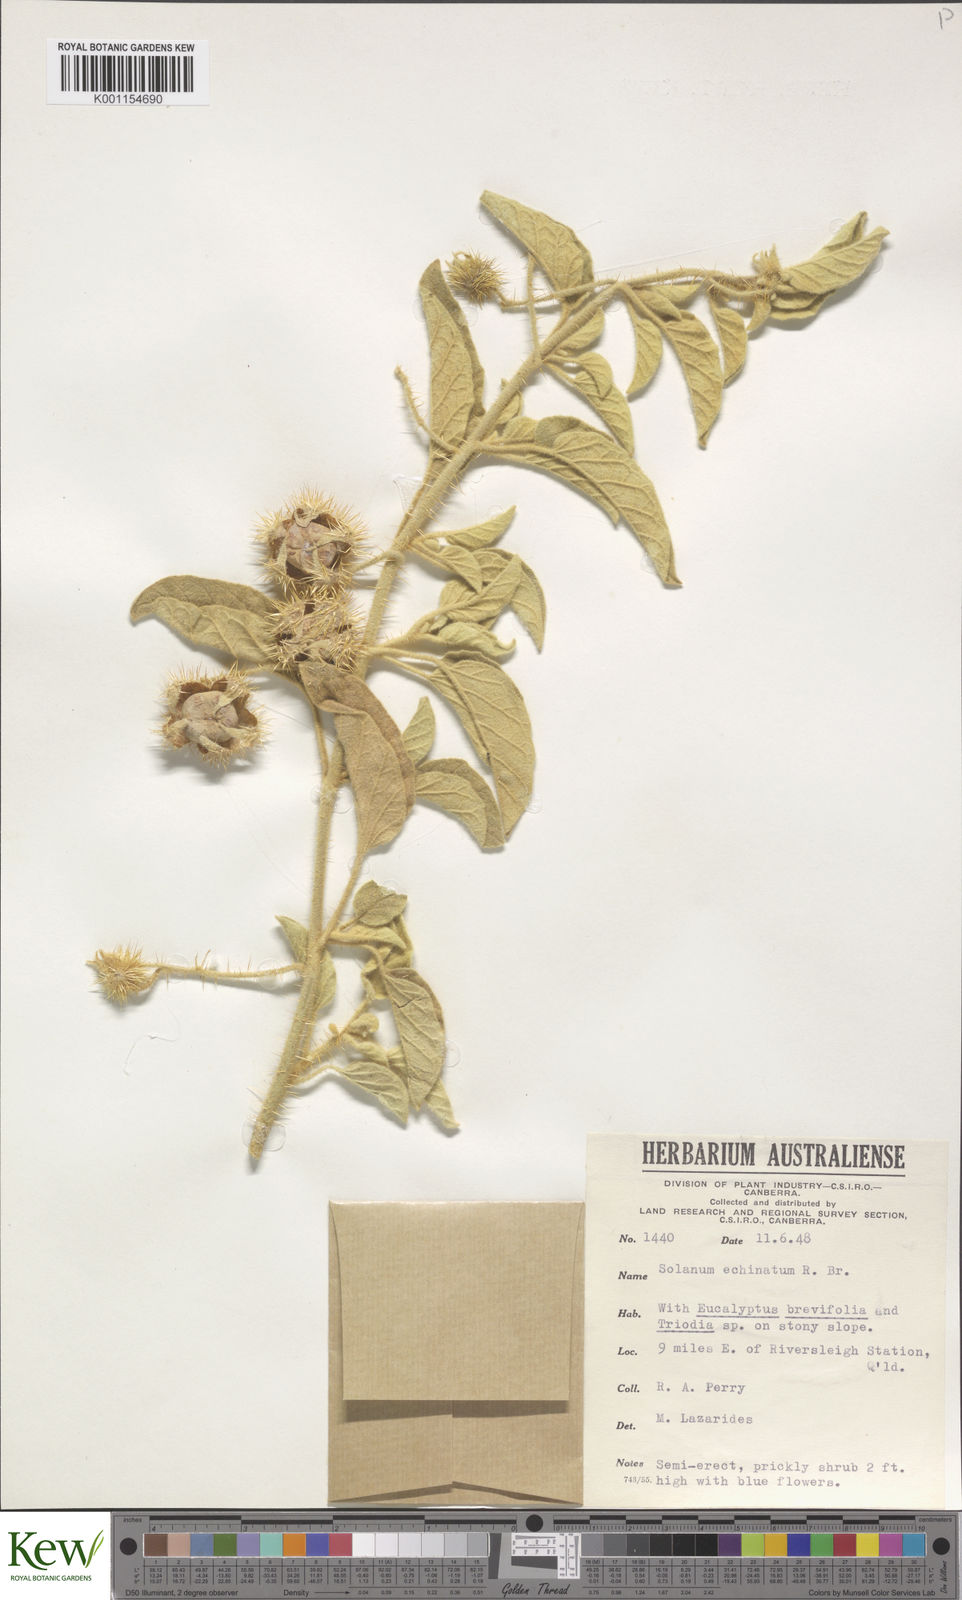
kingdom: Plantae
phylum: Tracheophyta
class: Magnoliopsida
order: Solanales
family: Solanaceae
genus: Solanum
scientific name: Solanum echinatum
